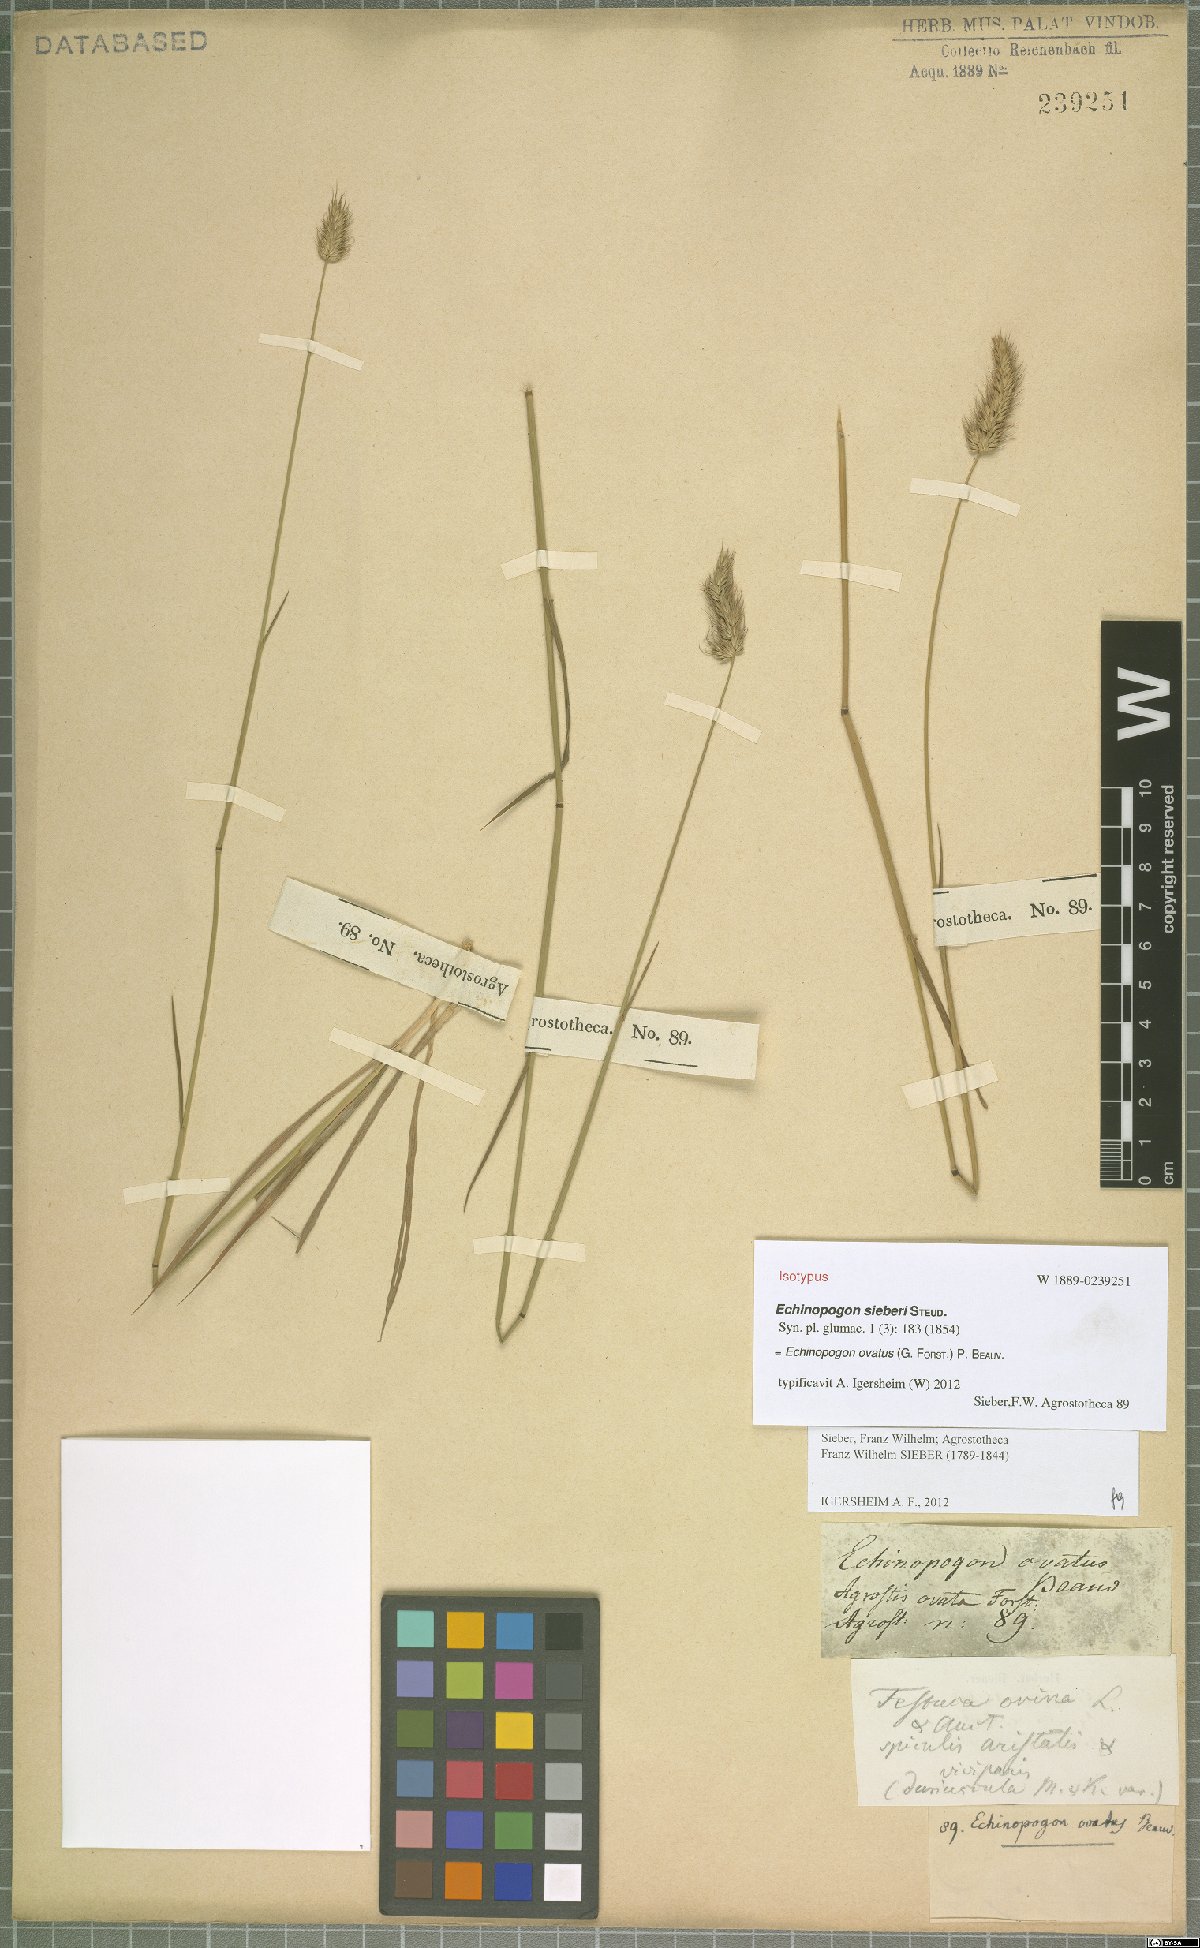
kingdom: Plantae
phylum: Tracheophyta
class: Liliopsida
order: Poales
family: Poaceae
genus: Echinopogon
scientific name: Echinopogon ovatus
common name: Hedgehog-grass
